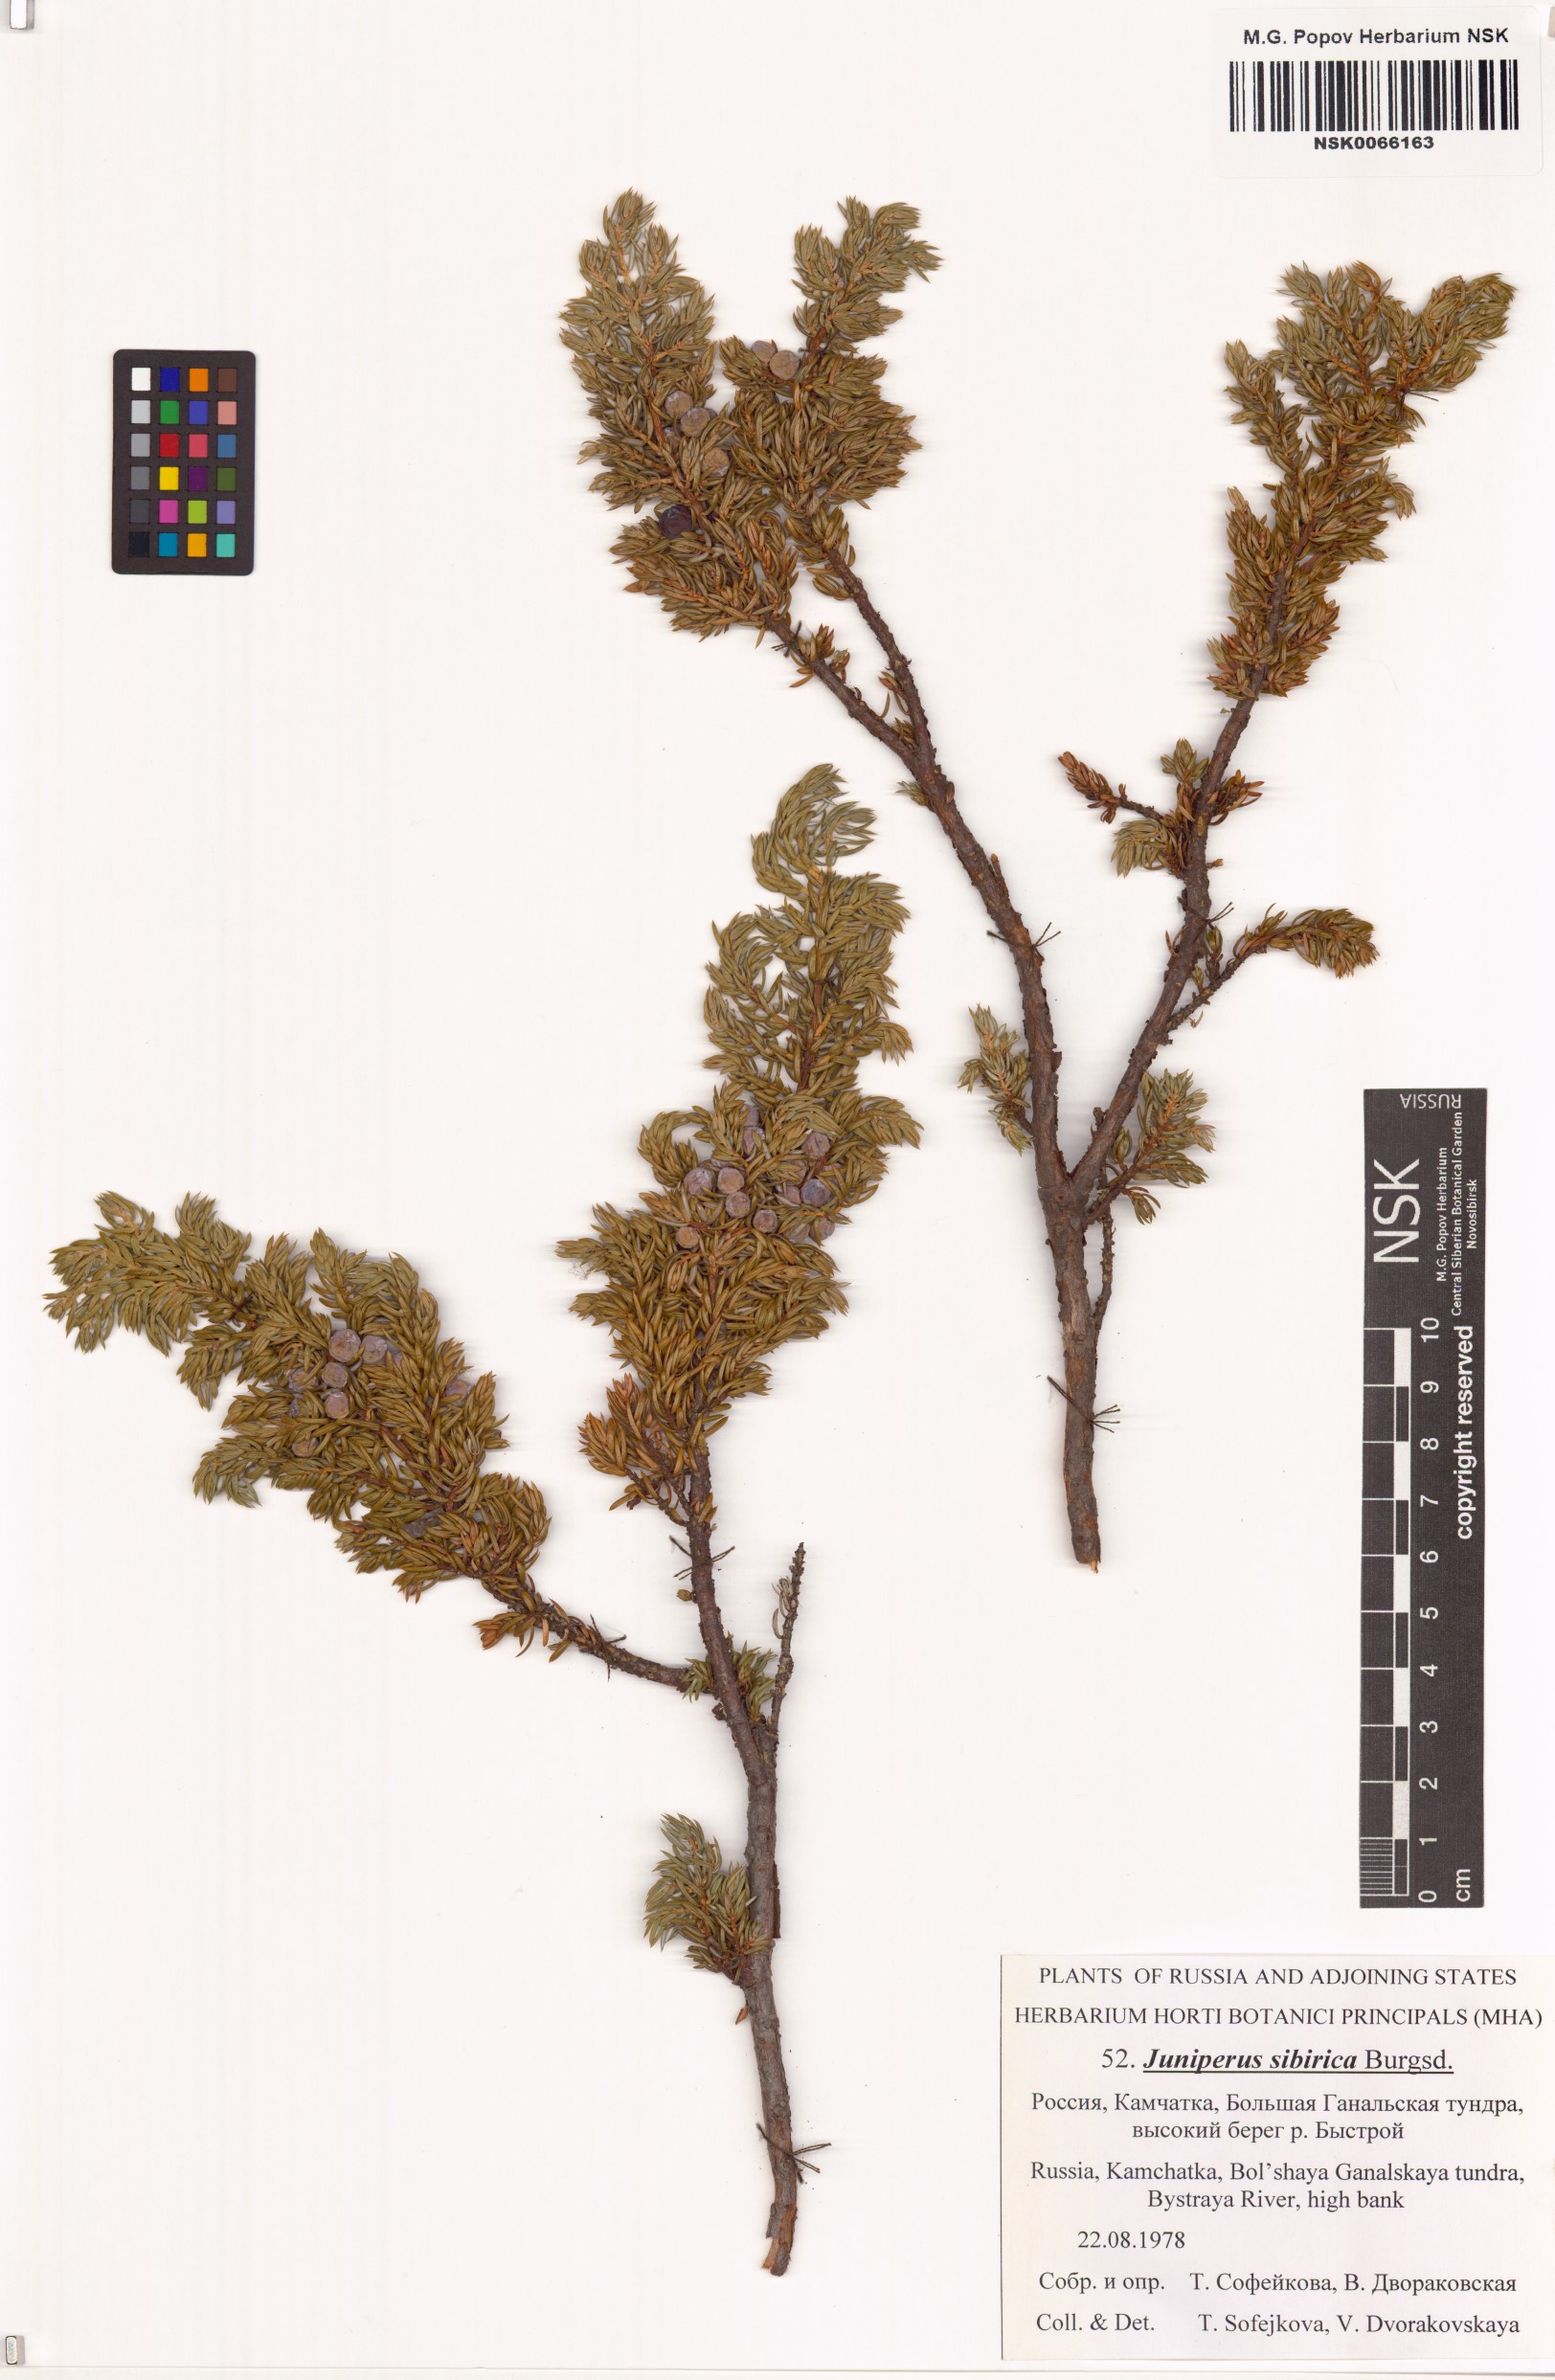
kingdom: Plantae
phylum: Tracheophyta
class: Pinopsida
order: Pinales
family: Cupressaceae
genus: Juniperus
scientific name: Juniperus communis
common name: Common juniper
